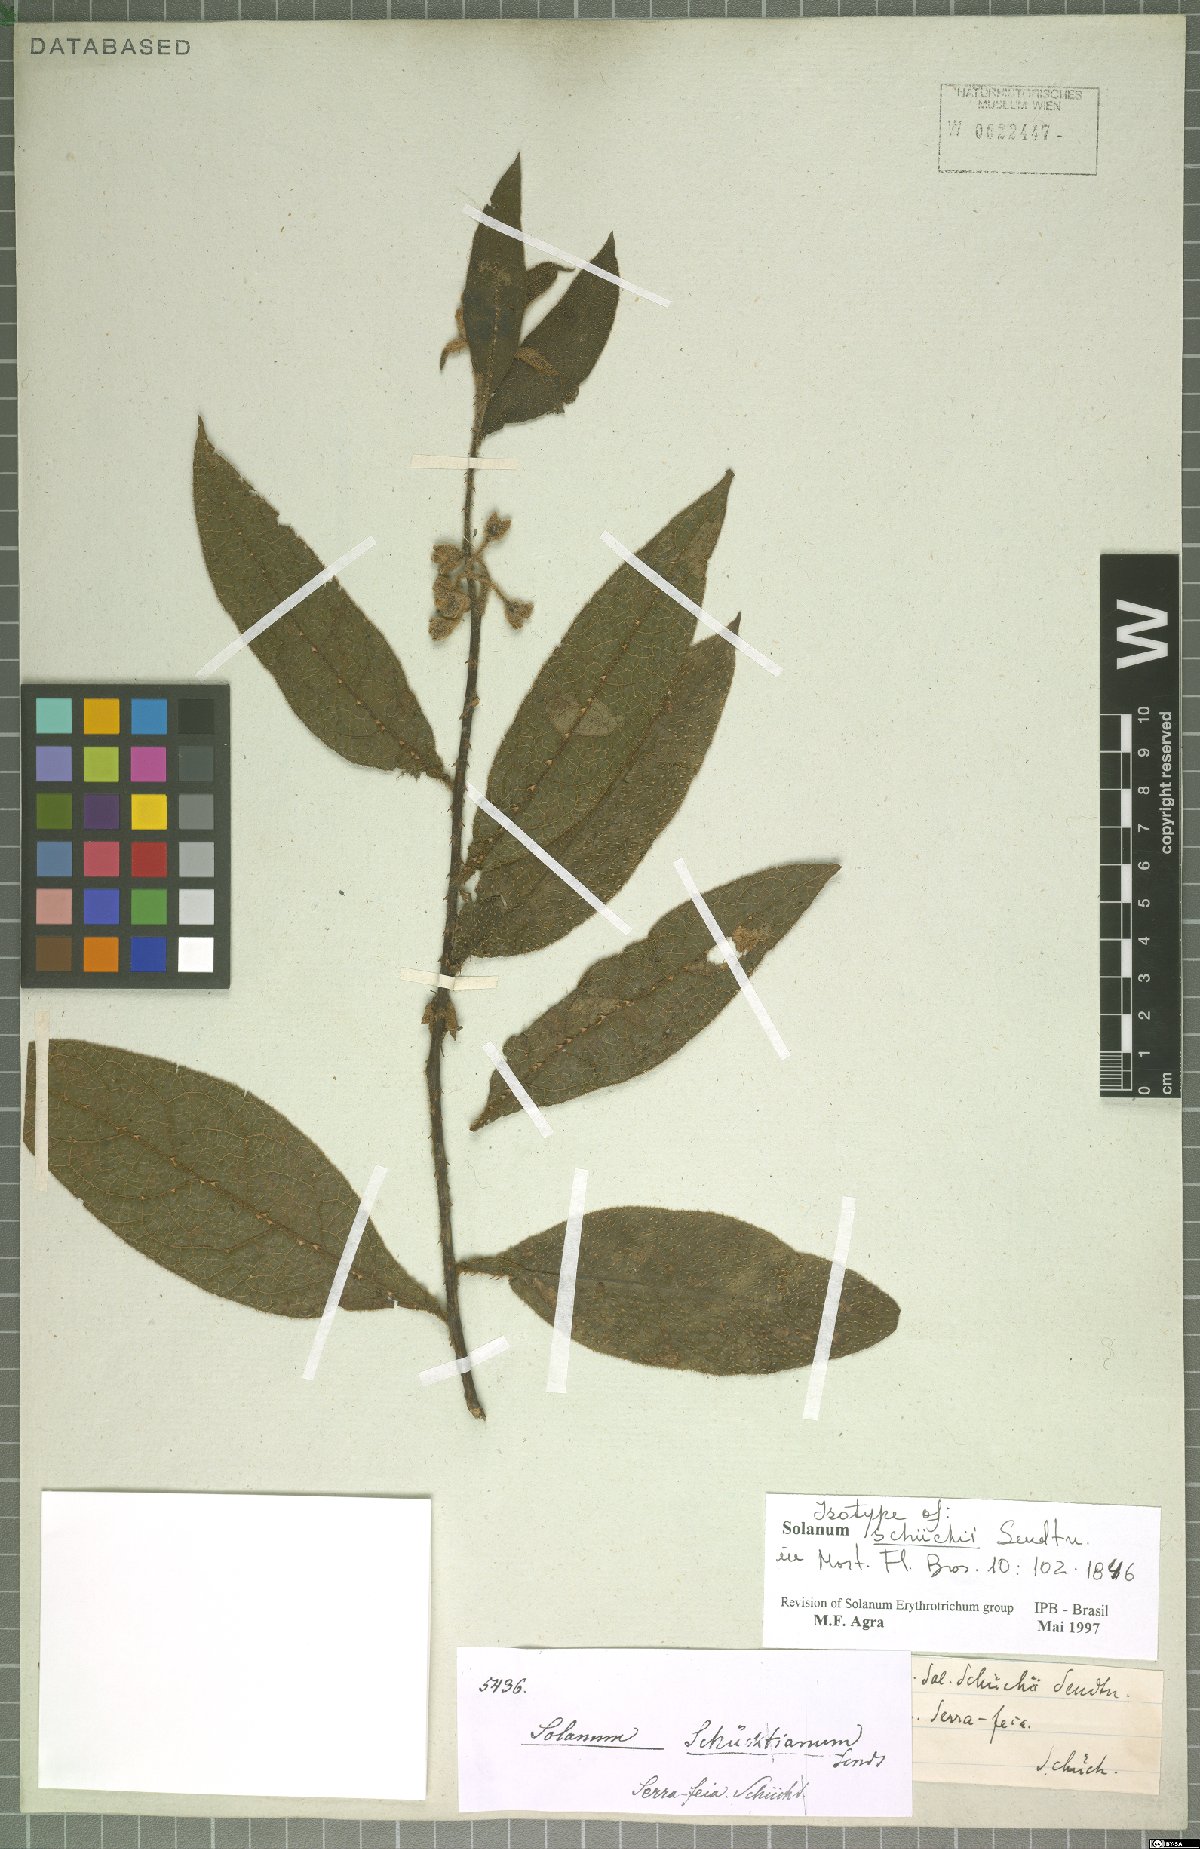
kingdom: Plantae
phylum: Tracheophyta
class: Magnoliopsida
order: Solanales
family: Solanaceae
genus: Solanum
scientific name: Solanum schuechii
